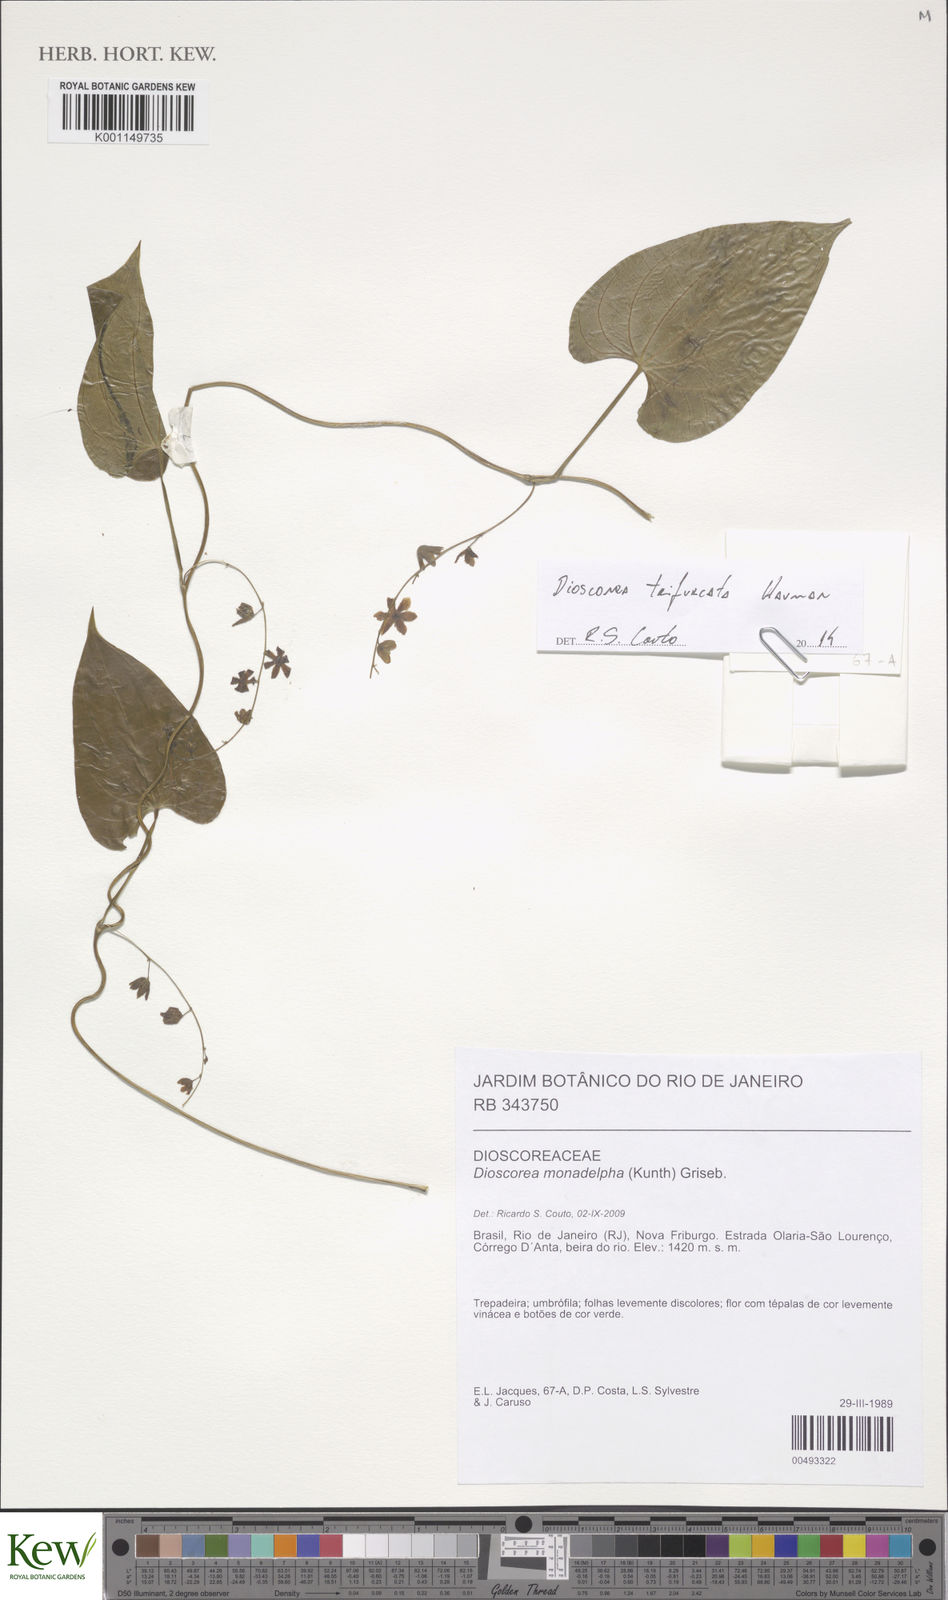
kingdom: Plantae
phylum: Tracheophyta
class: Liliopsida
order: Dioscoreales
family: Dioscoreaceae
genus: Dioscorea
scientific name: Dioscorea trifurcata
